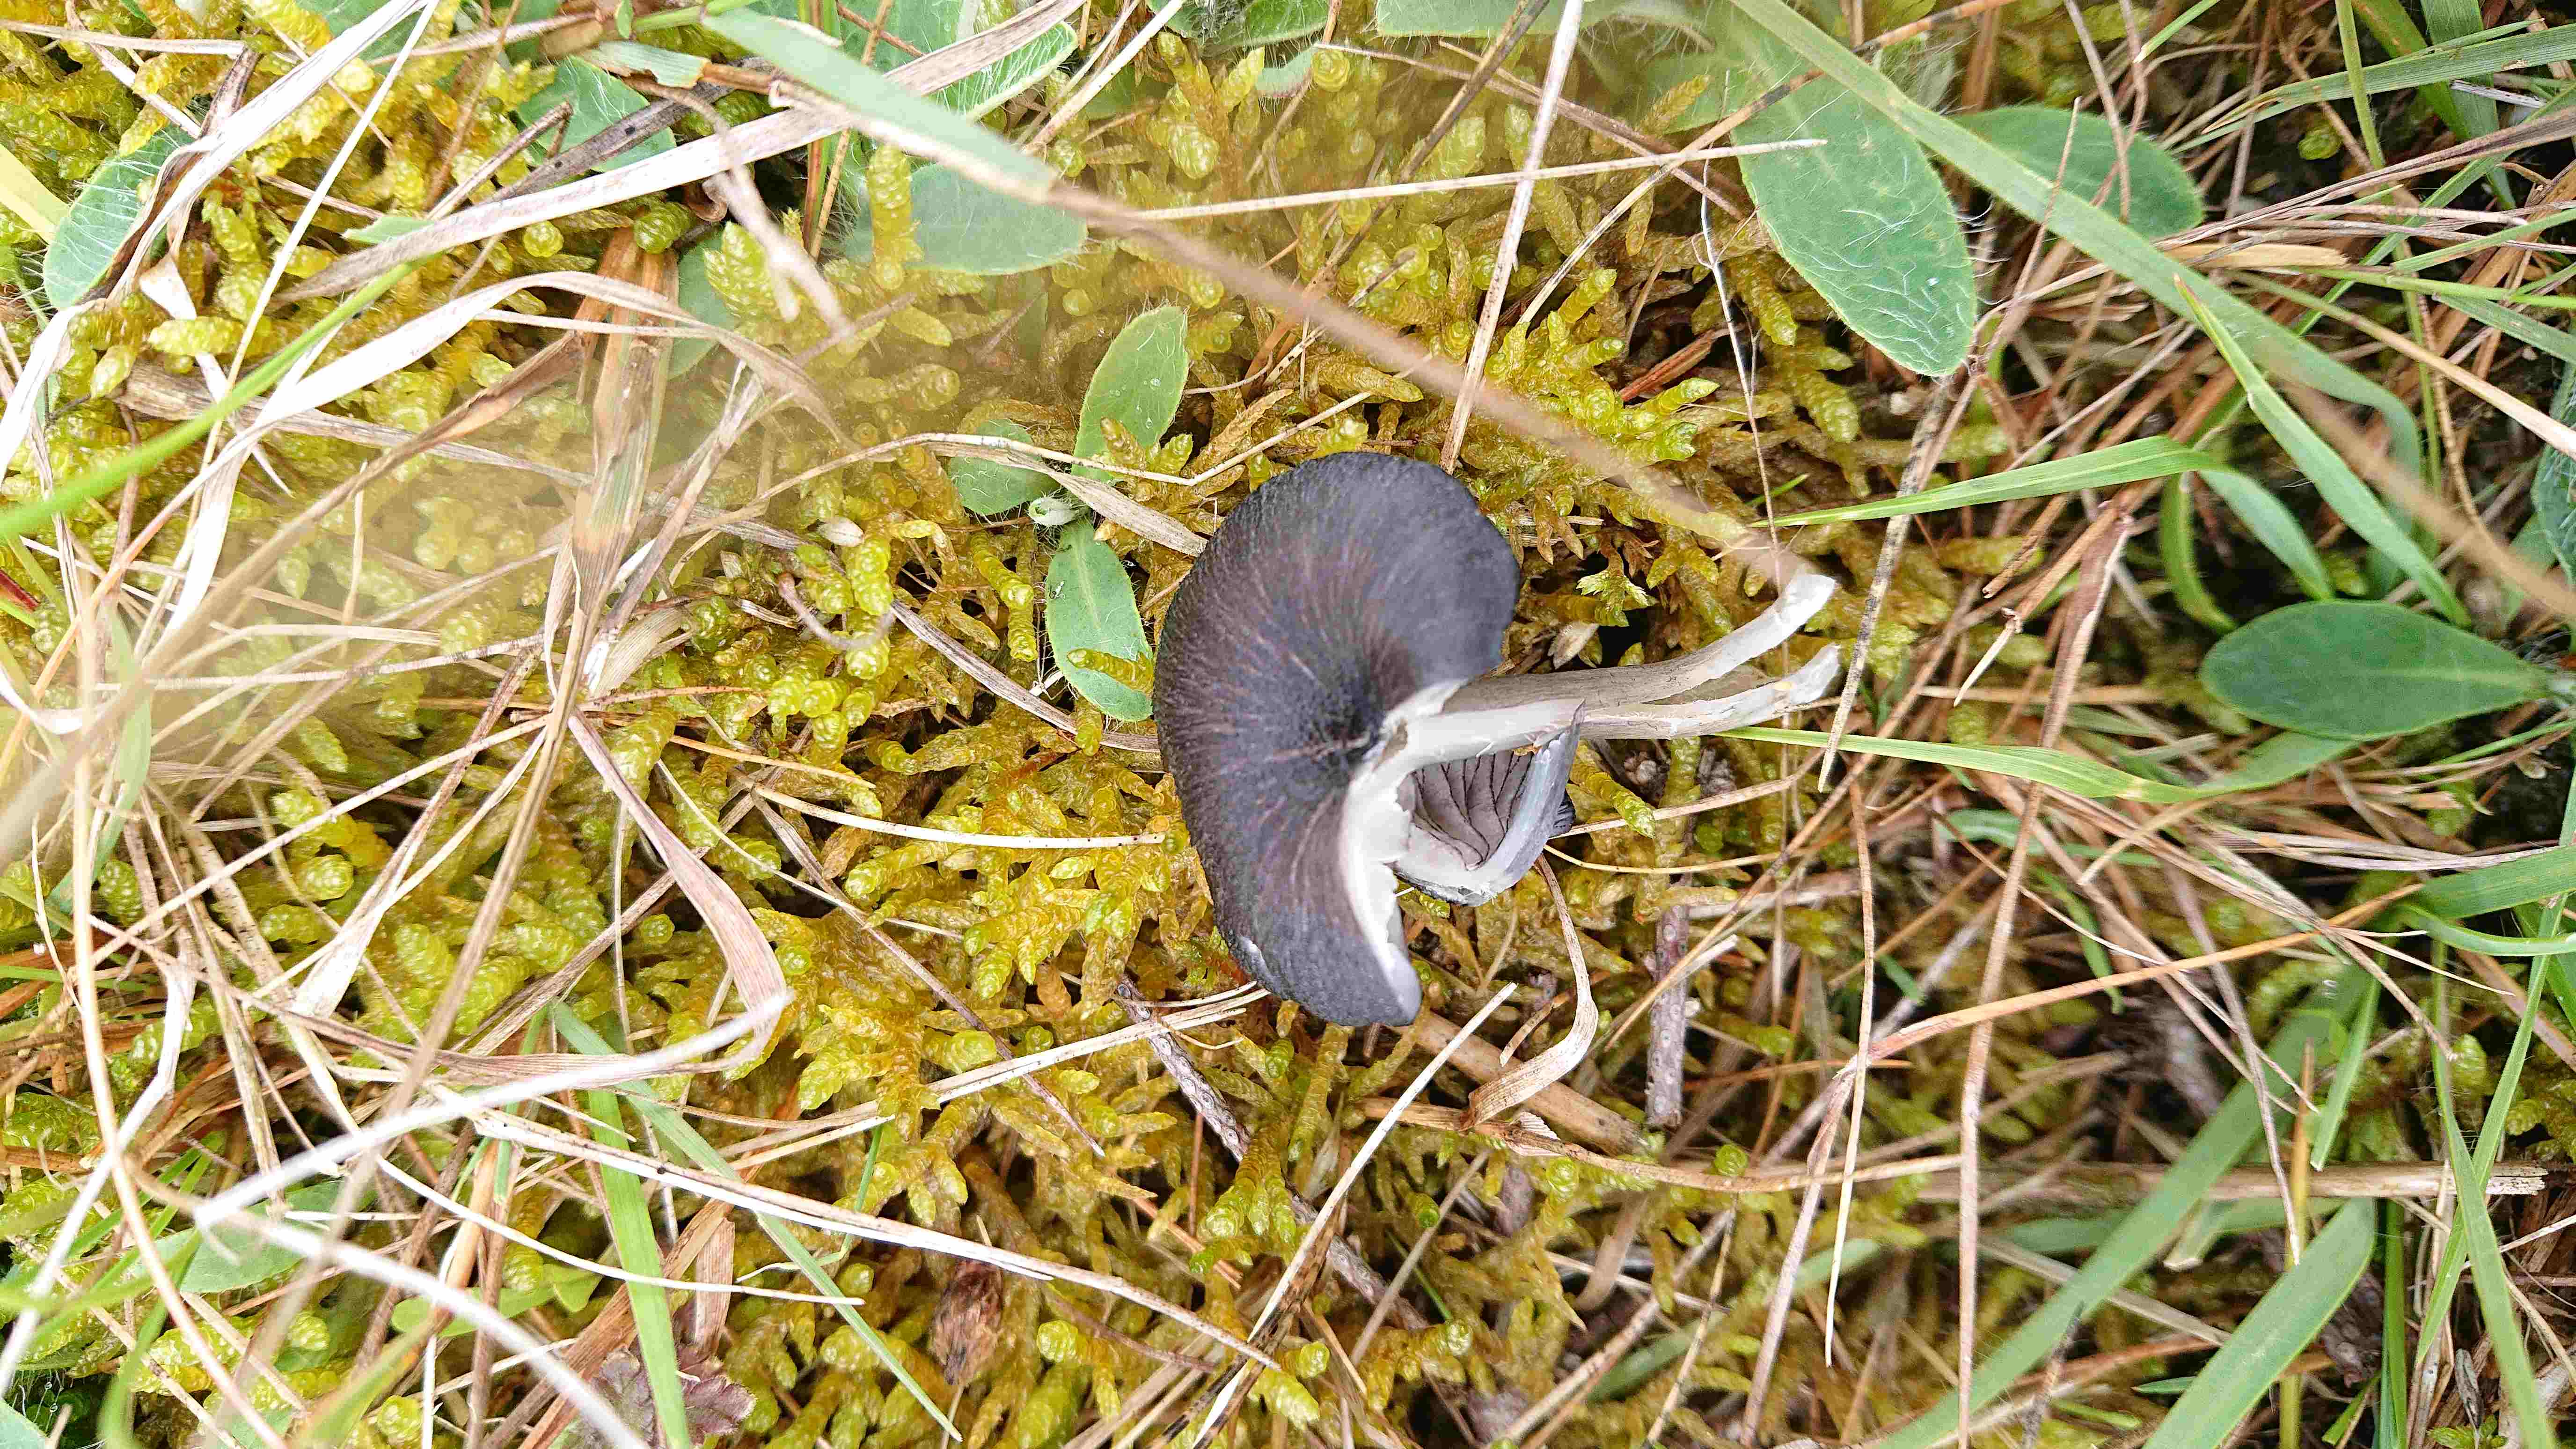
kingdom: Fungi
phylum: Basidiomycota
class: Agaricomycetes
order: Agaricales
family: Entolomataceae
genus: Entoloma
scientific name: Entoloma
